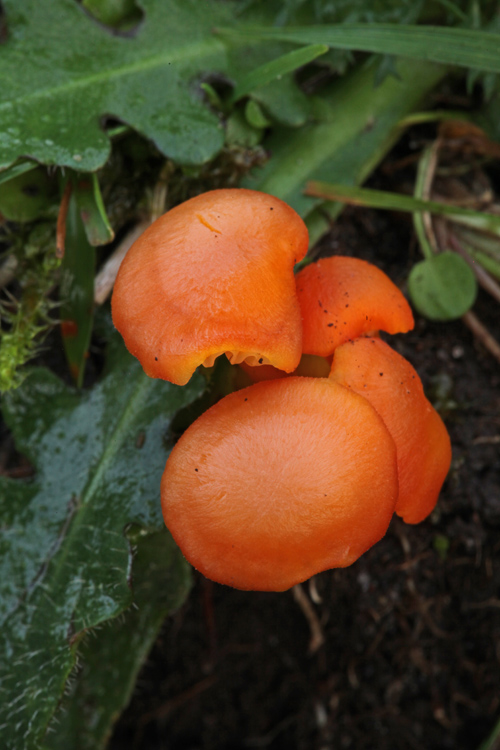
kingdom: Fungi
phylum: Basidiomycota
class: Agaricomycetes
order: Agaricales
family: Hygrophoraceae
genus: Hygrocybe
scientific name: Hygrocybe miniata
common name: mønje-vokshat
